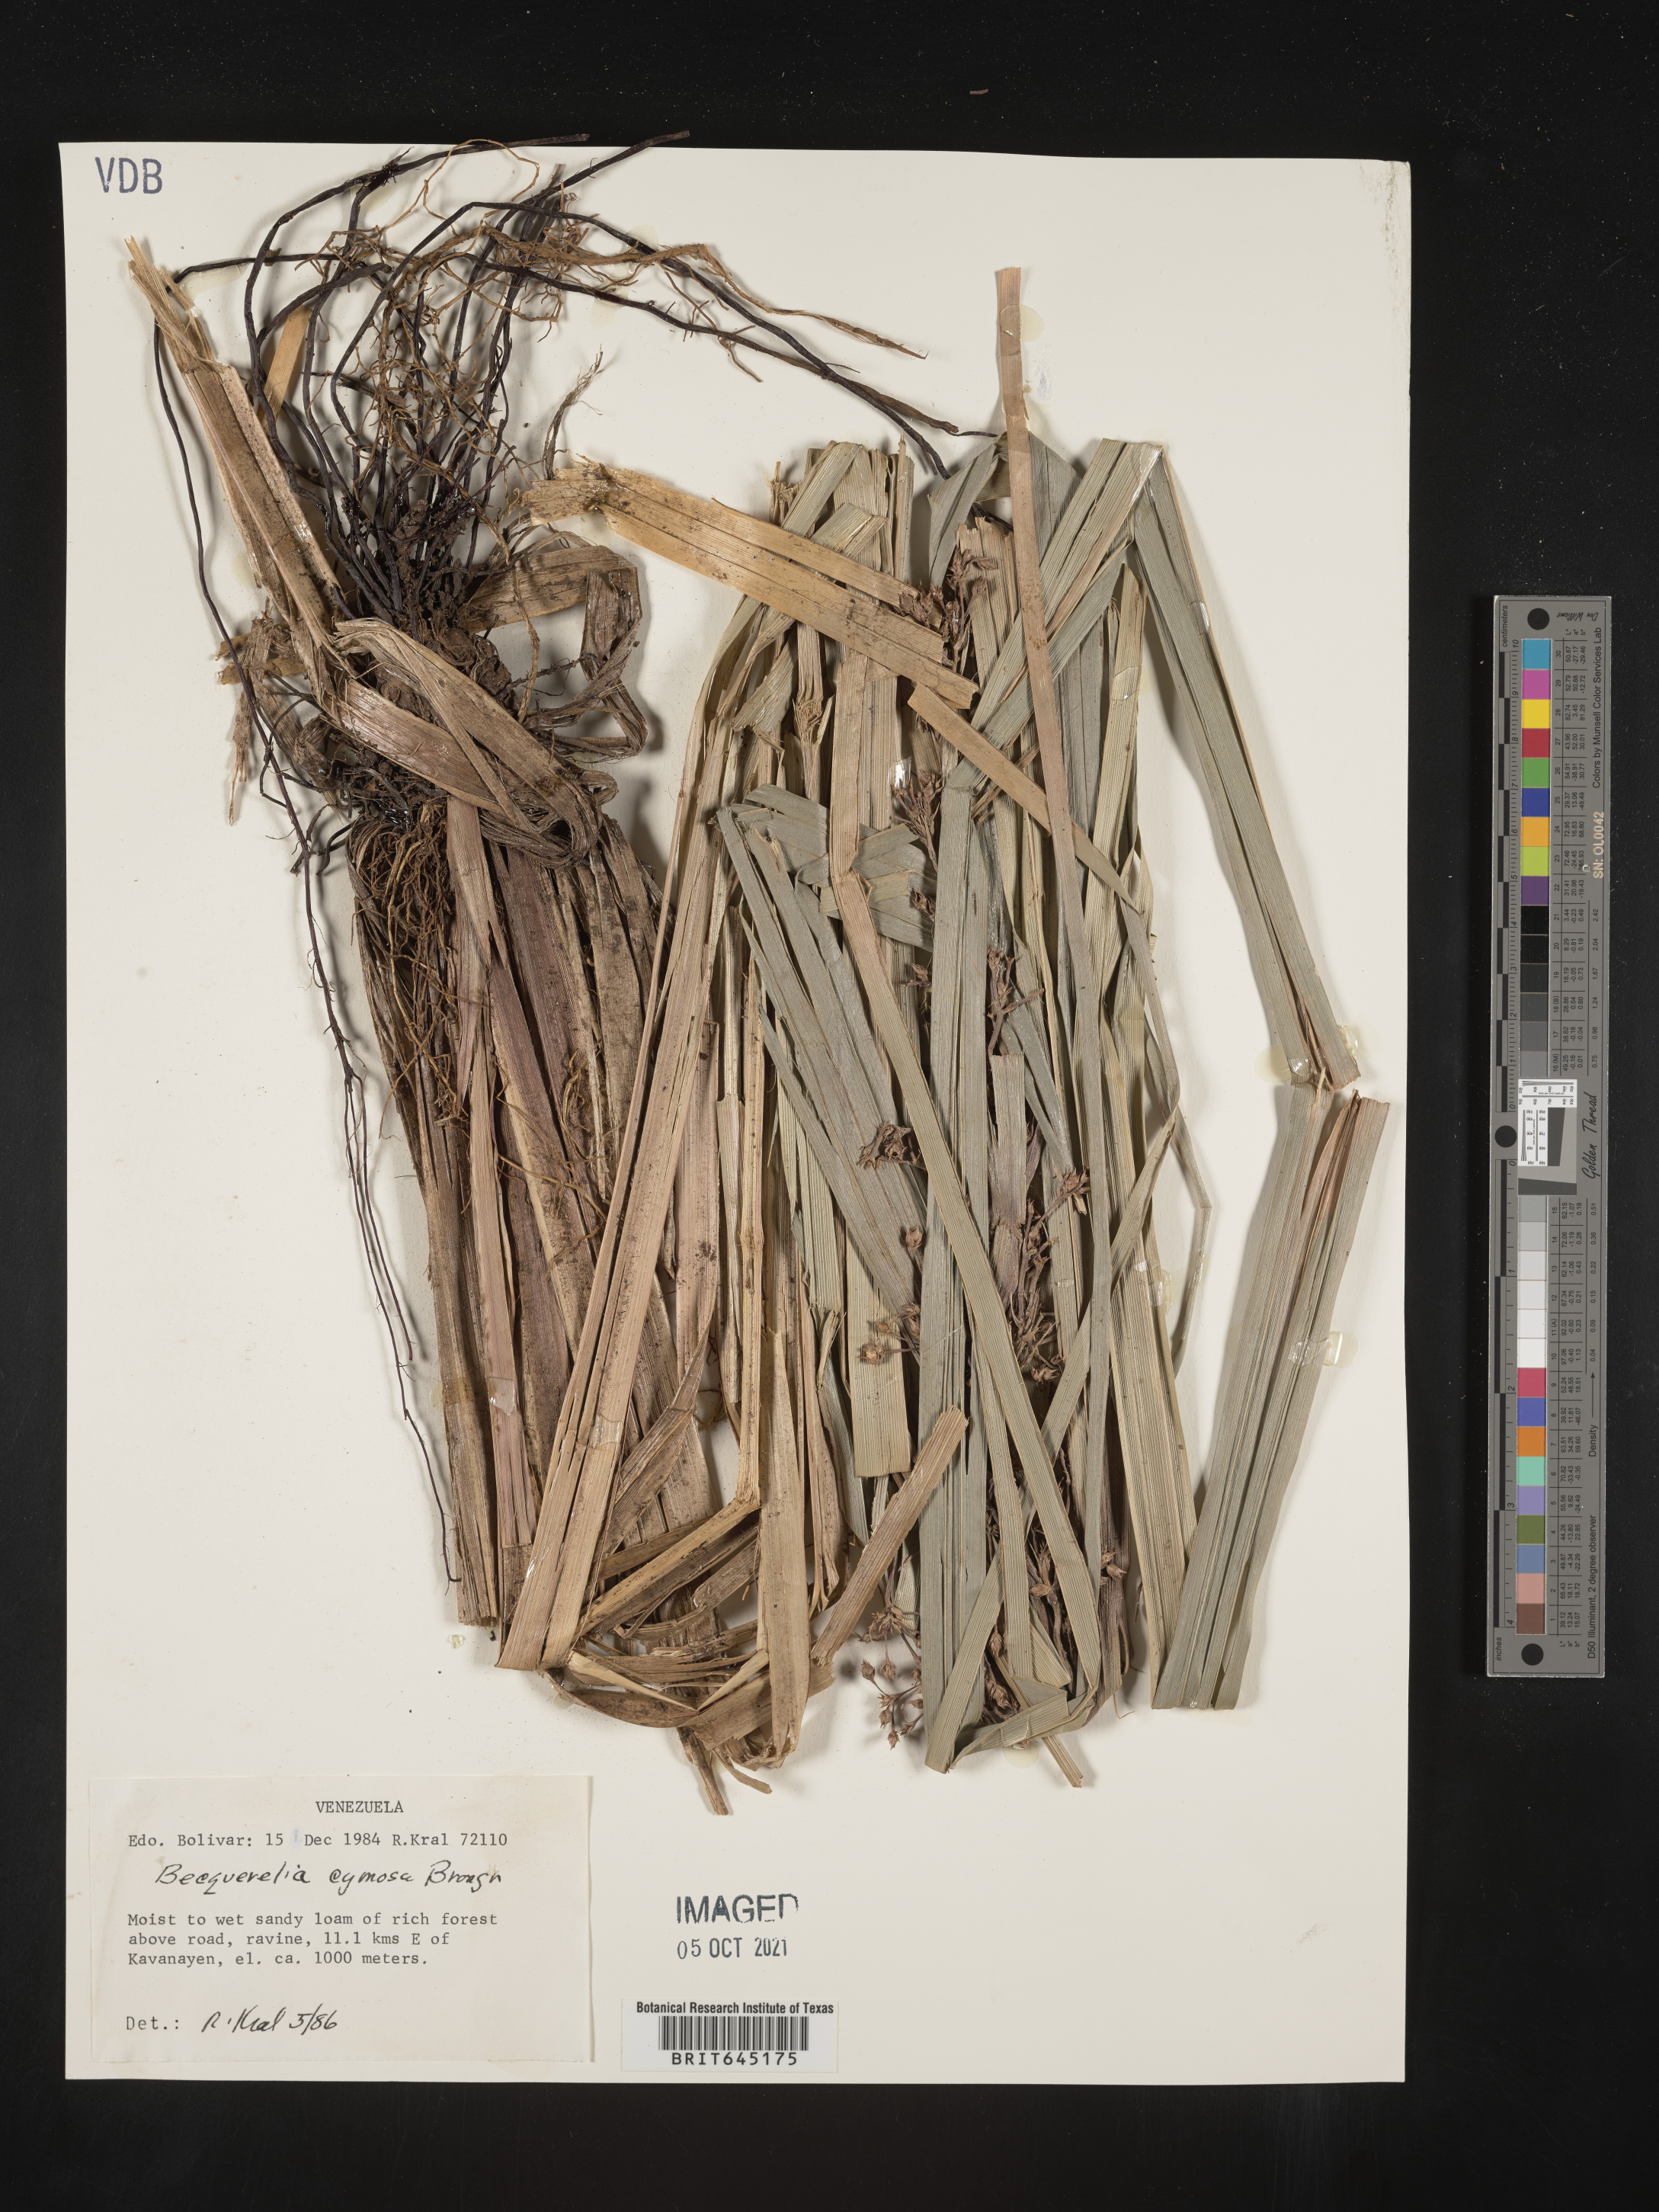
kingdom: Plantae
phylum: Tracheophyta
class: Liliopsida
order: Poales
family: Cyperaceae
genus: Becquerelia
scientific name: Becquerelia merkeliana
